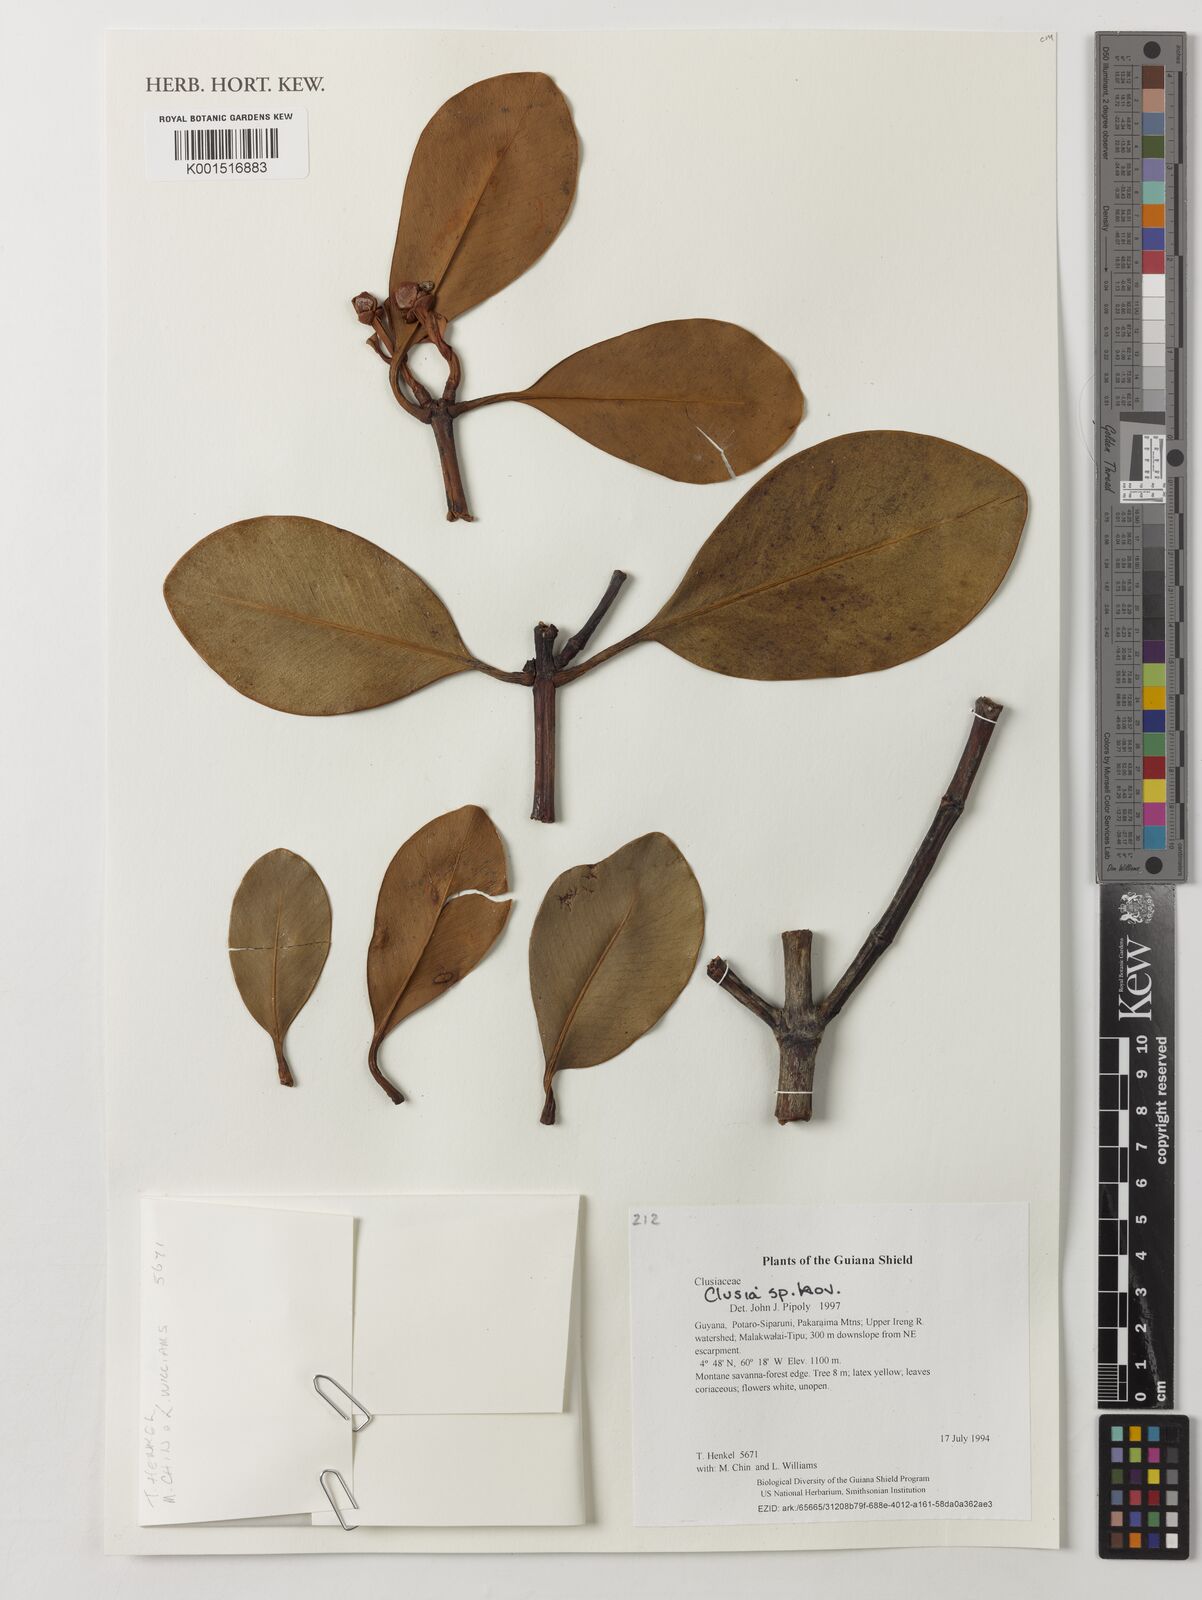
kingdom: Plantae
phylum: Tracheophyta
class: Magnoliopsida
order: Malpighiales
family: Clusiaceae
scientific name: Clusiaceae
